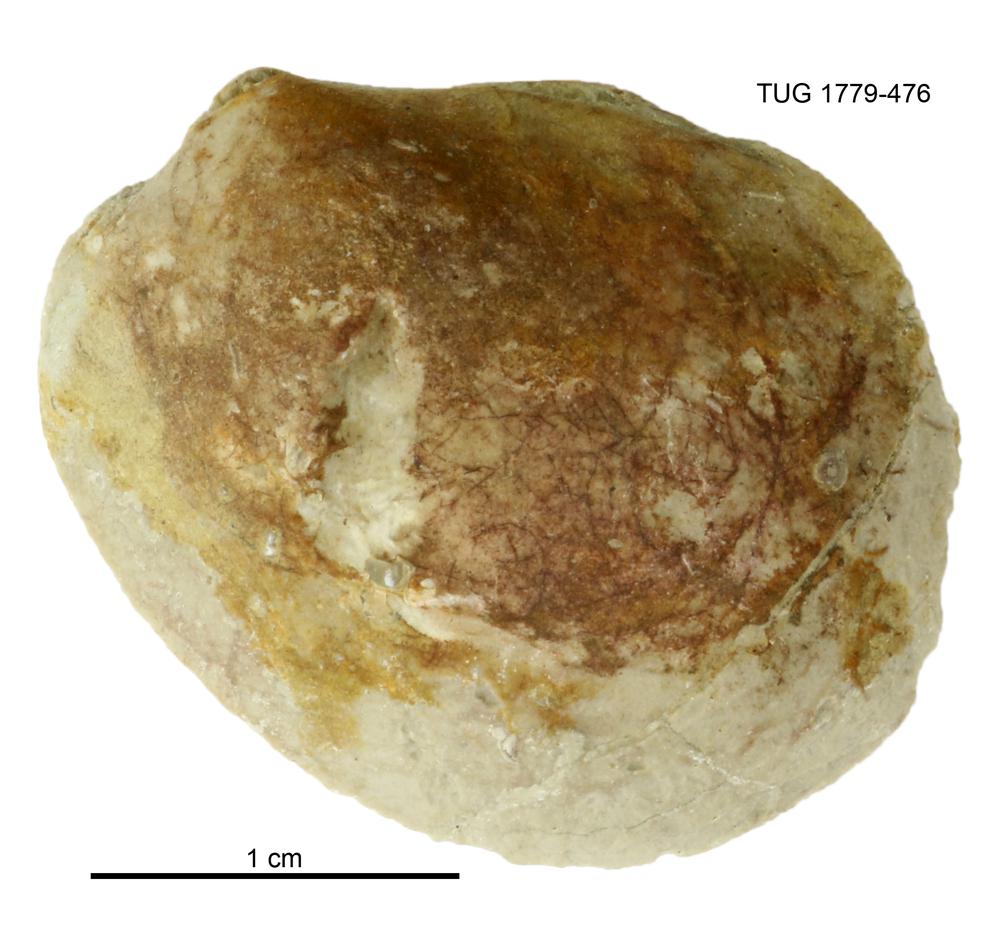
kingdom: Animalia
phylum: Mollusca
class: Bivalvia
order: Modiomorphida
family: Modiomorphidae
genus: Modiolopsis
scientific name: Modiolopsis
